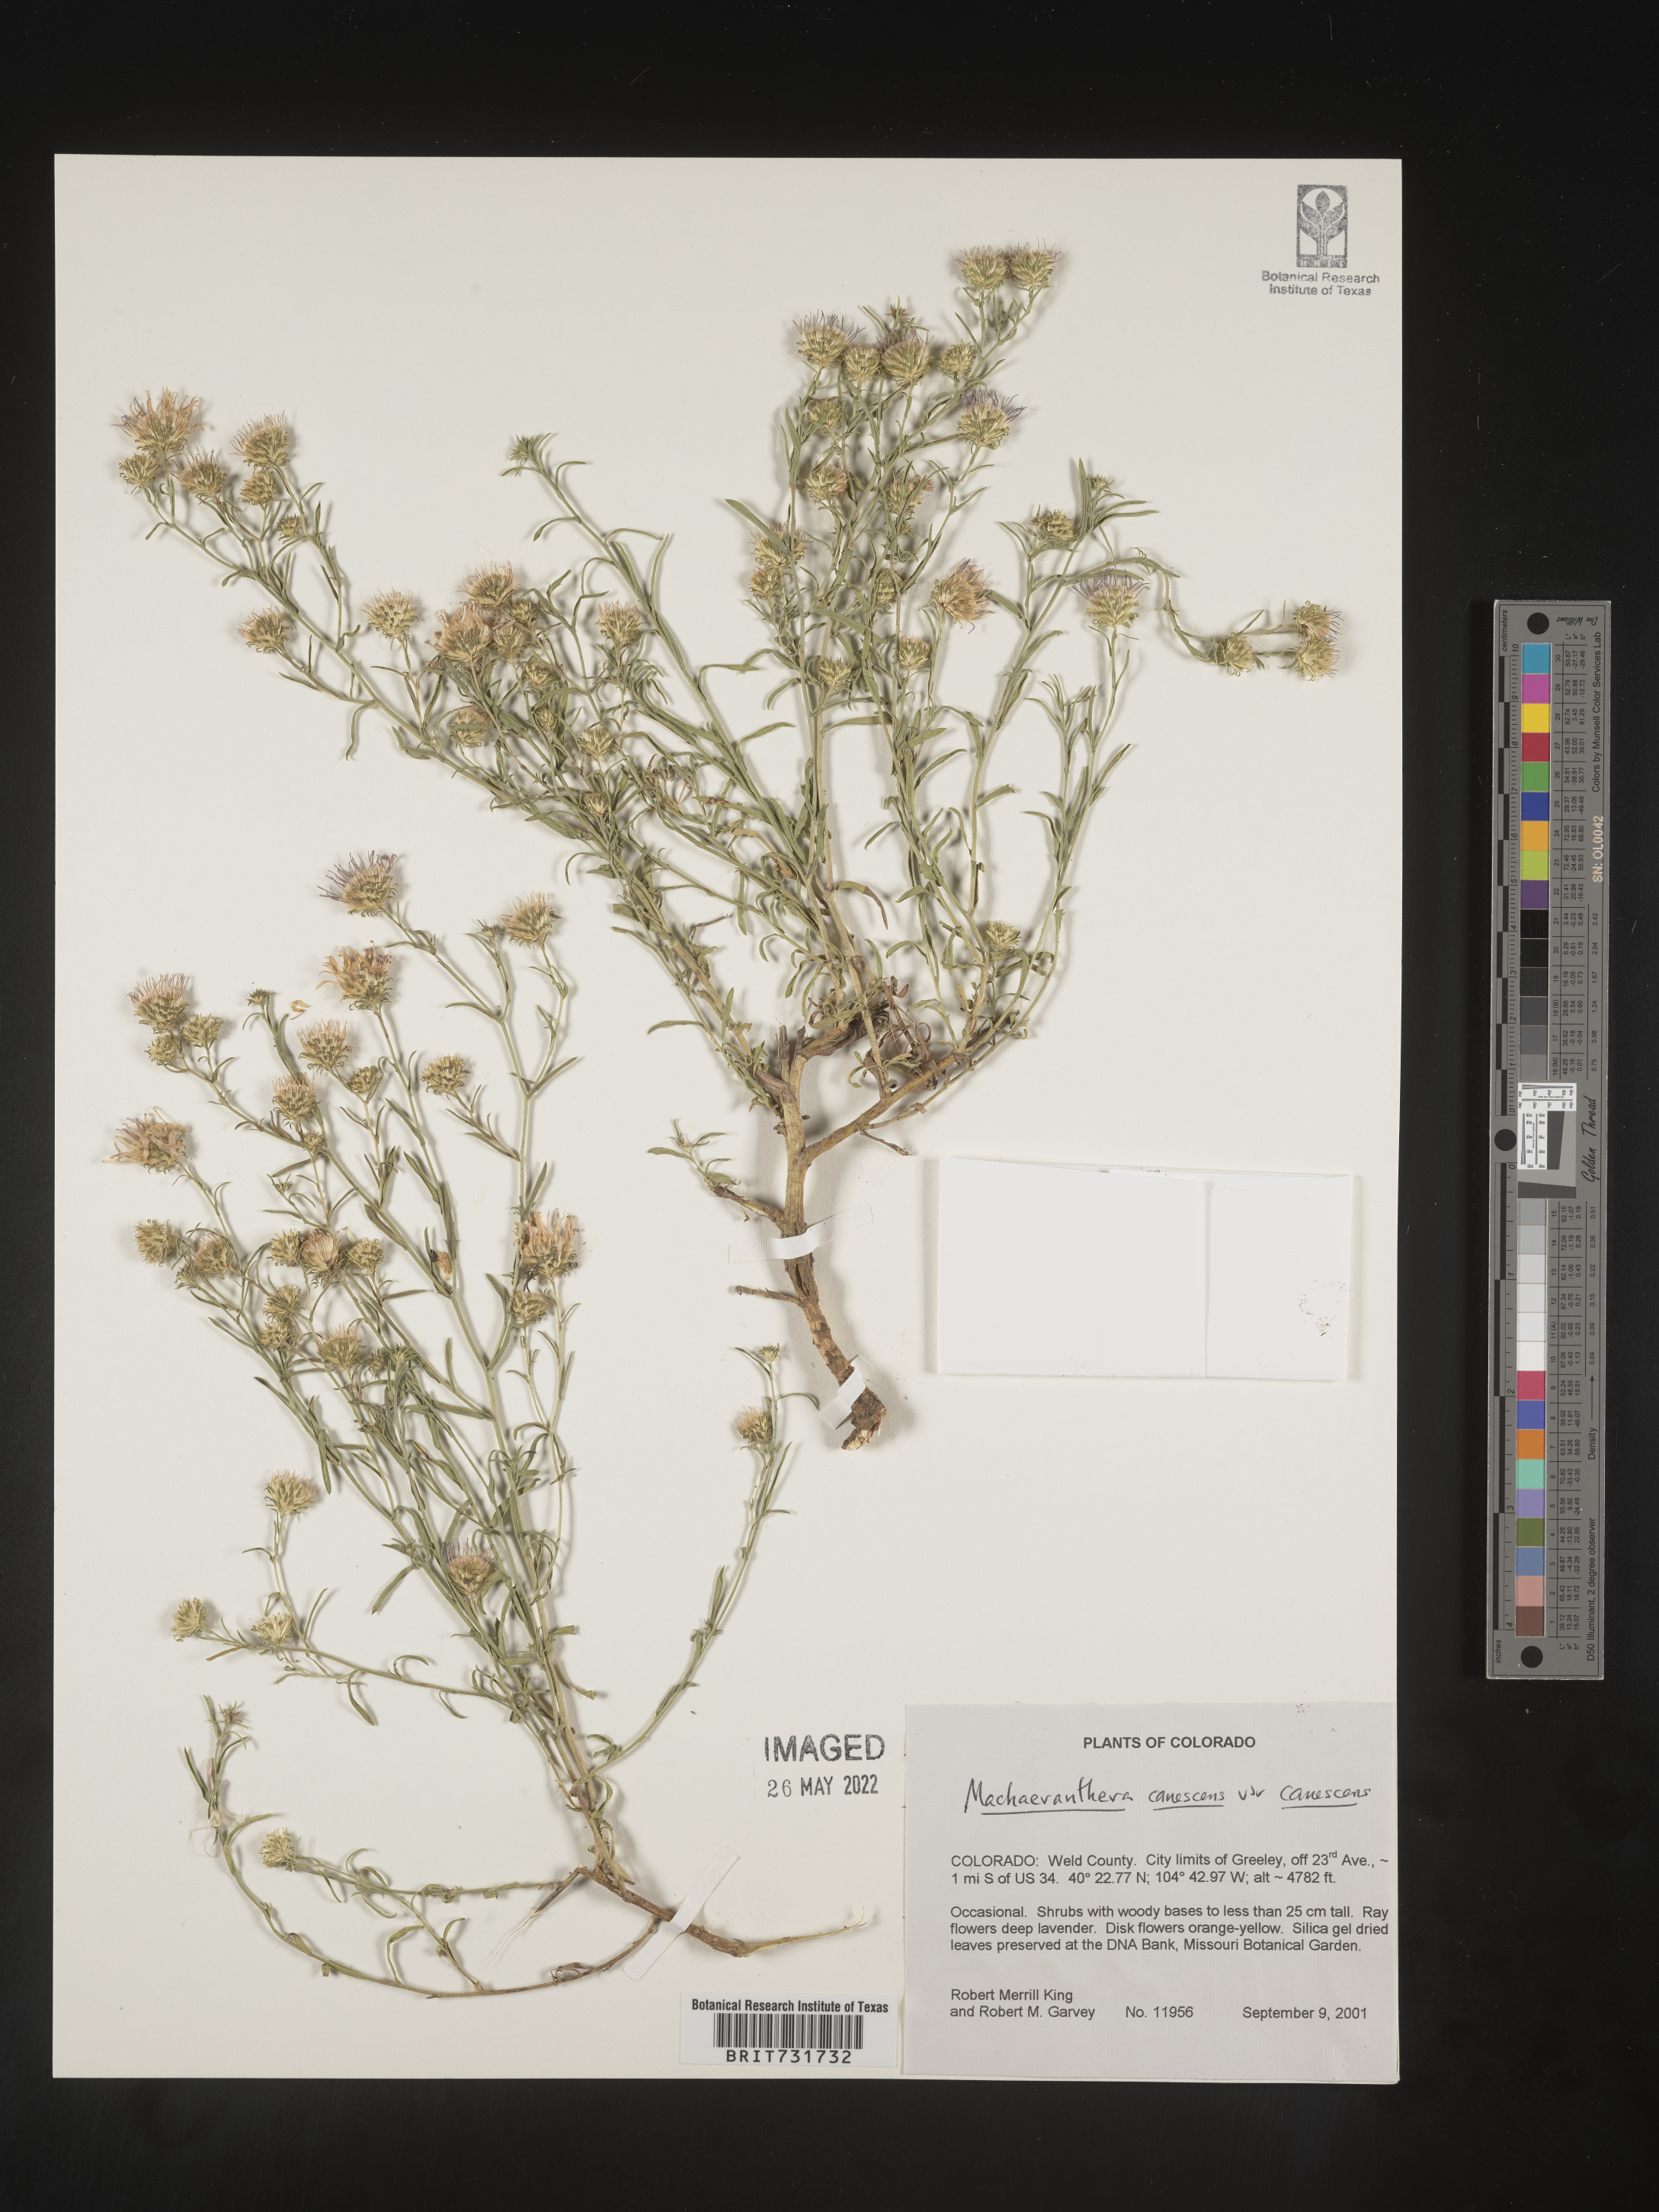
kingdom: Plantae
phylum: Tracheophyta
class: Magnoliopsida
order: Asterales
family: Asteraceae
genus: Dieteria
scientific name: Dieteria canescens
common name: Hoary-aster
